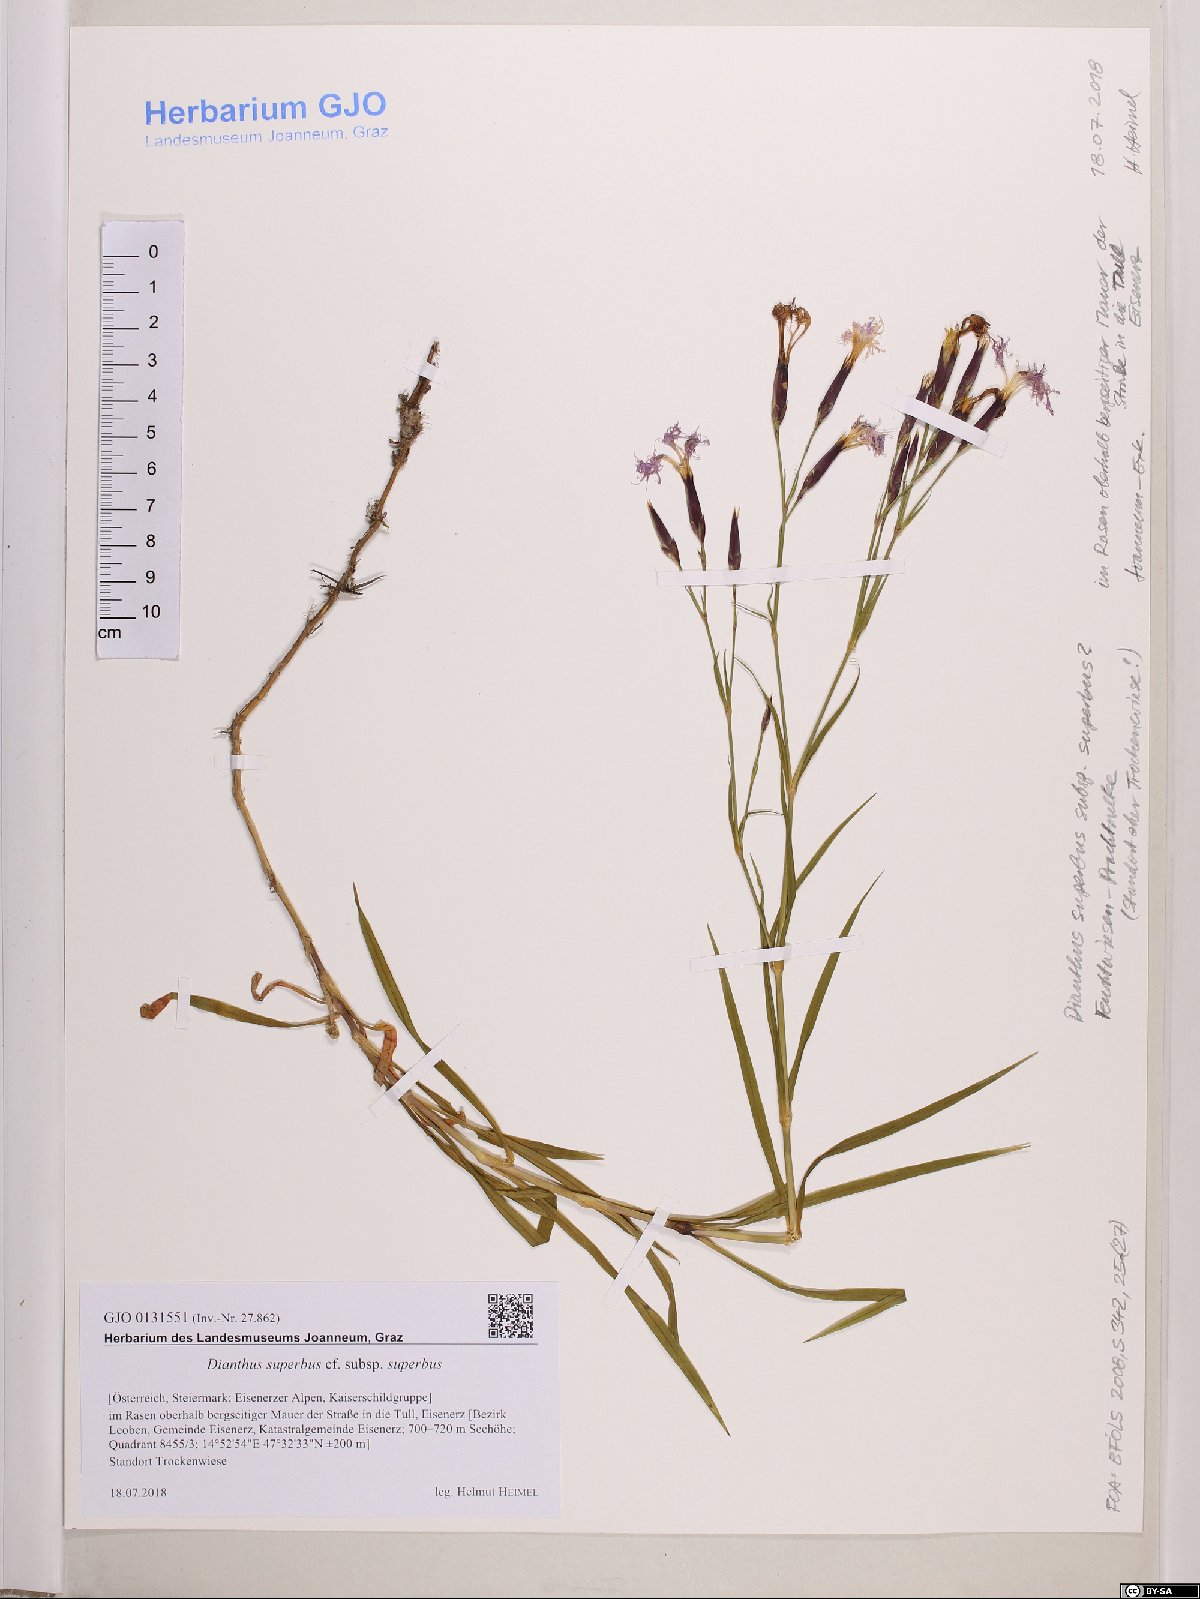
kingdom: Plantae
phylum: Tracheophyta
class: Magnoliopsida
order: Caryophyllales
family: Caryophyllaceae
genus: Dianthus
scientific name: Dianthus superbus
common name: Fringed pink
